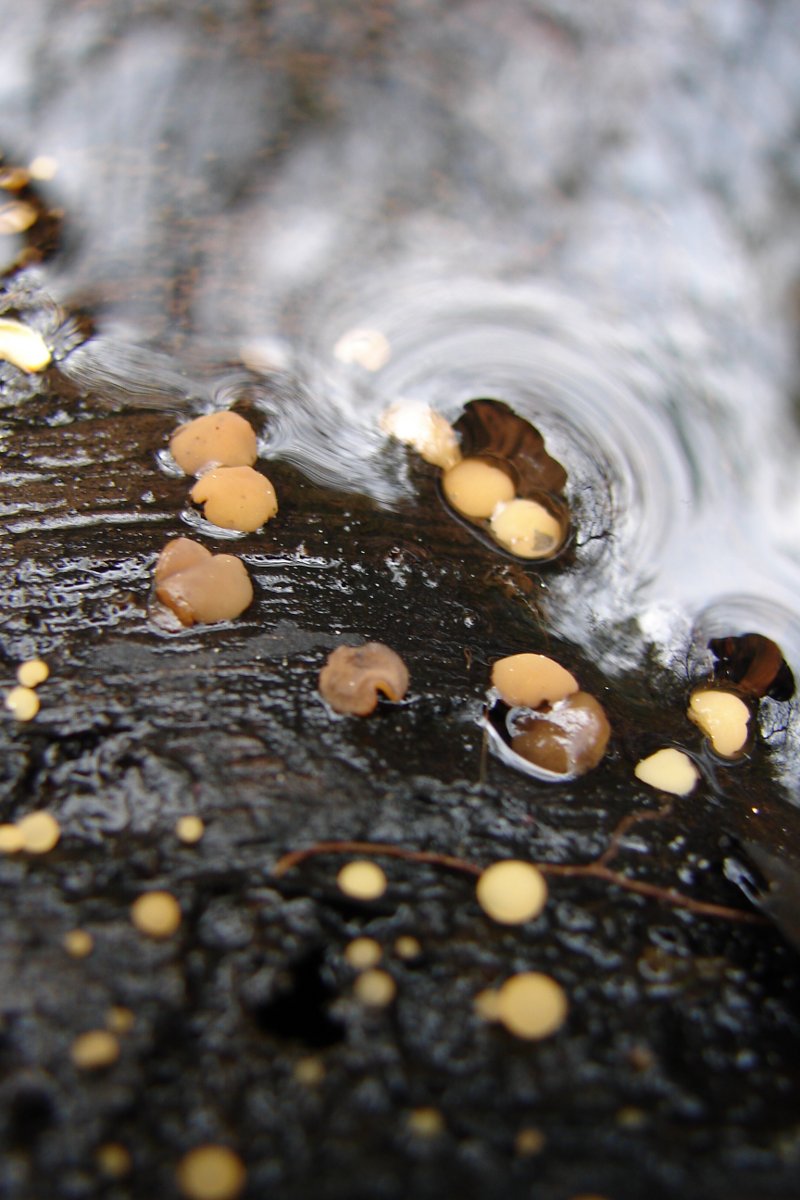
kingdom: Fungi
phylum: Ascomycota
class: Leotiomycetes
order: Helotiales
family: Helotiaceae
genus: Hymenoscyphus
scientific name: Hymenoscyphus imberbis
